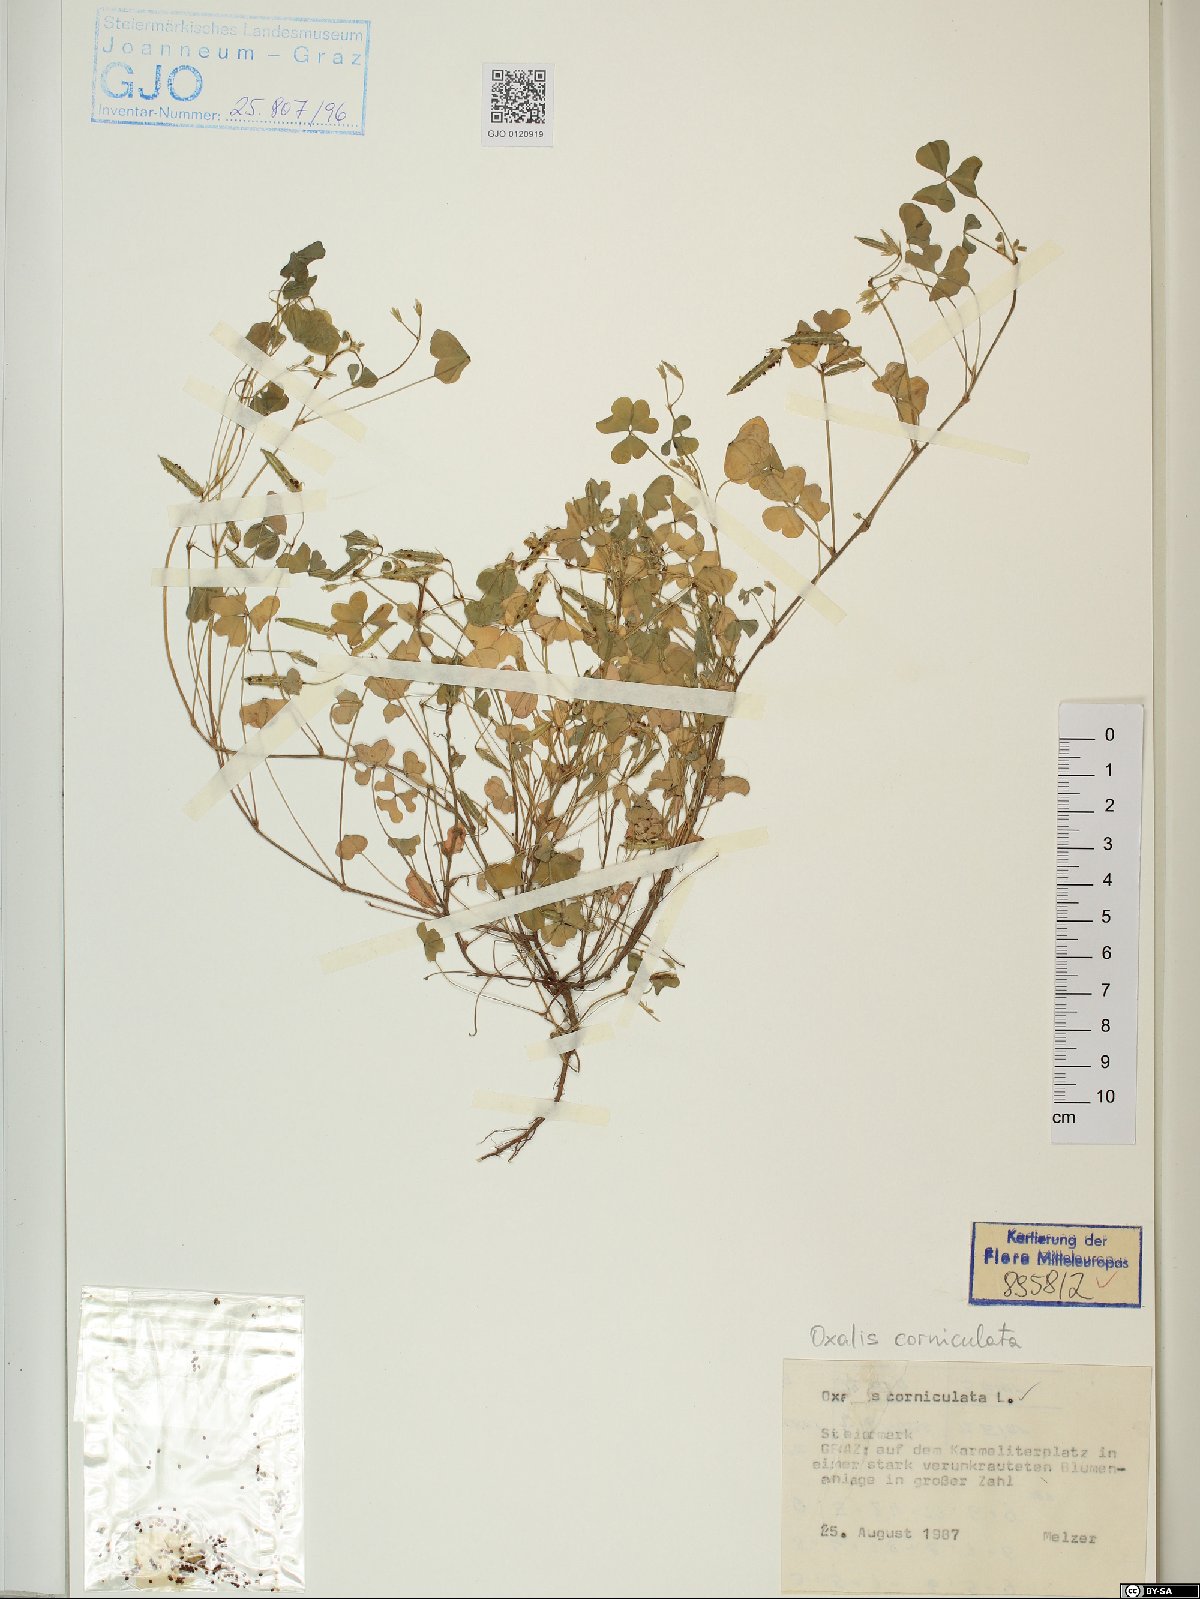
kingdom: Plantae
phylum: Tracheophyta
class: Magnoliopsida
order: Oxalidales
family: Oxalidaceae
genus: Oxalis
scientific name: Oxalis corniculata
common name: Procumbent yellow-sorrel
